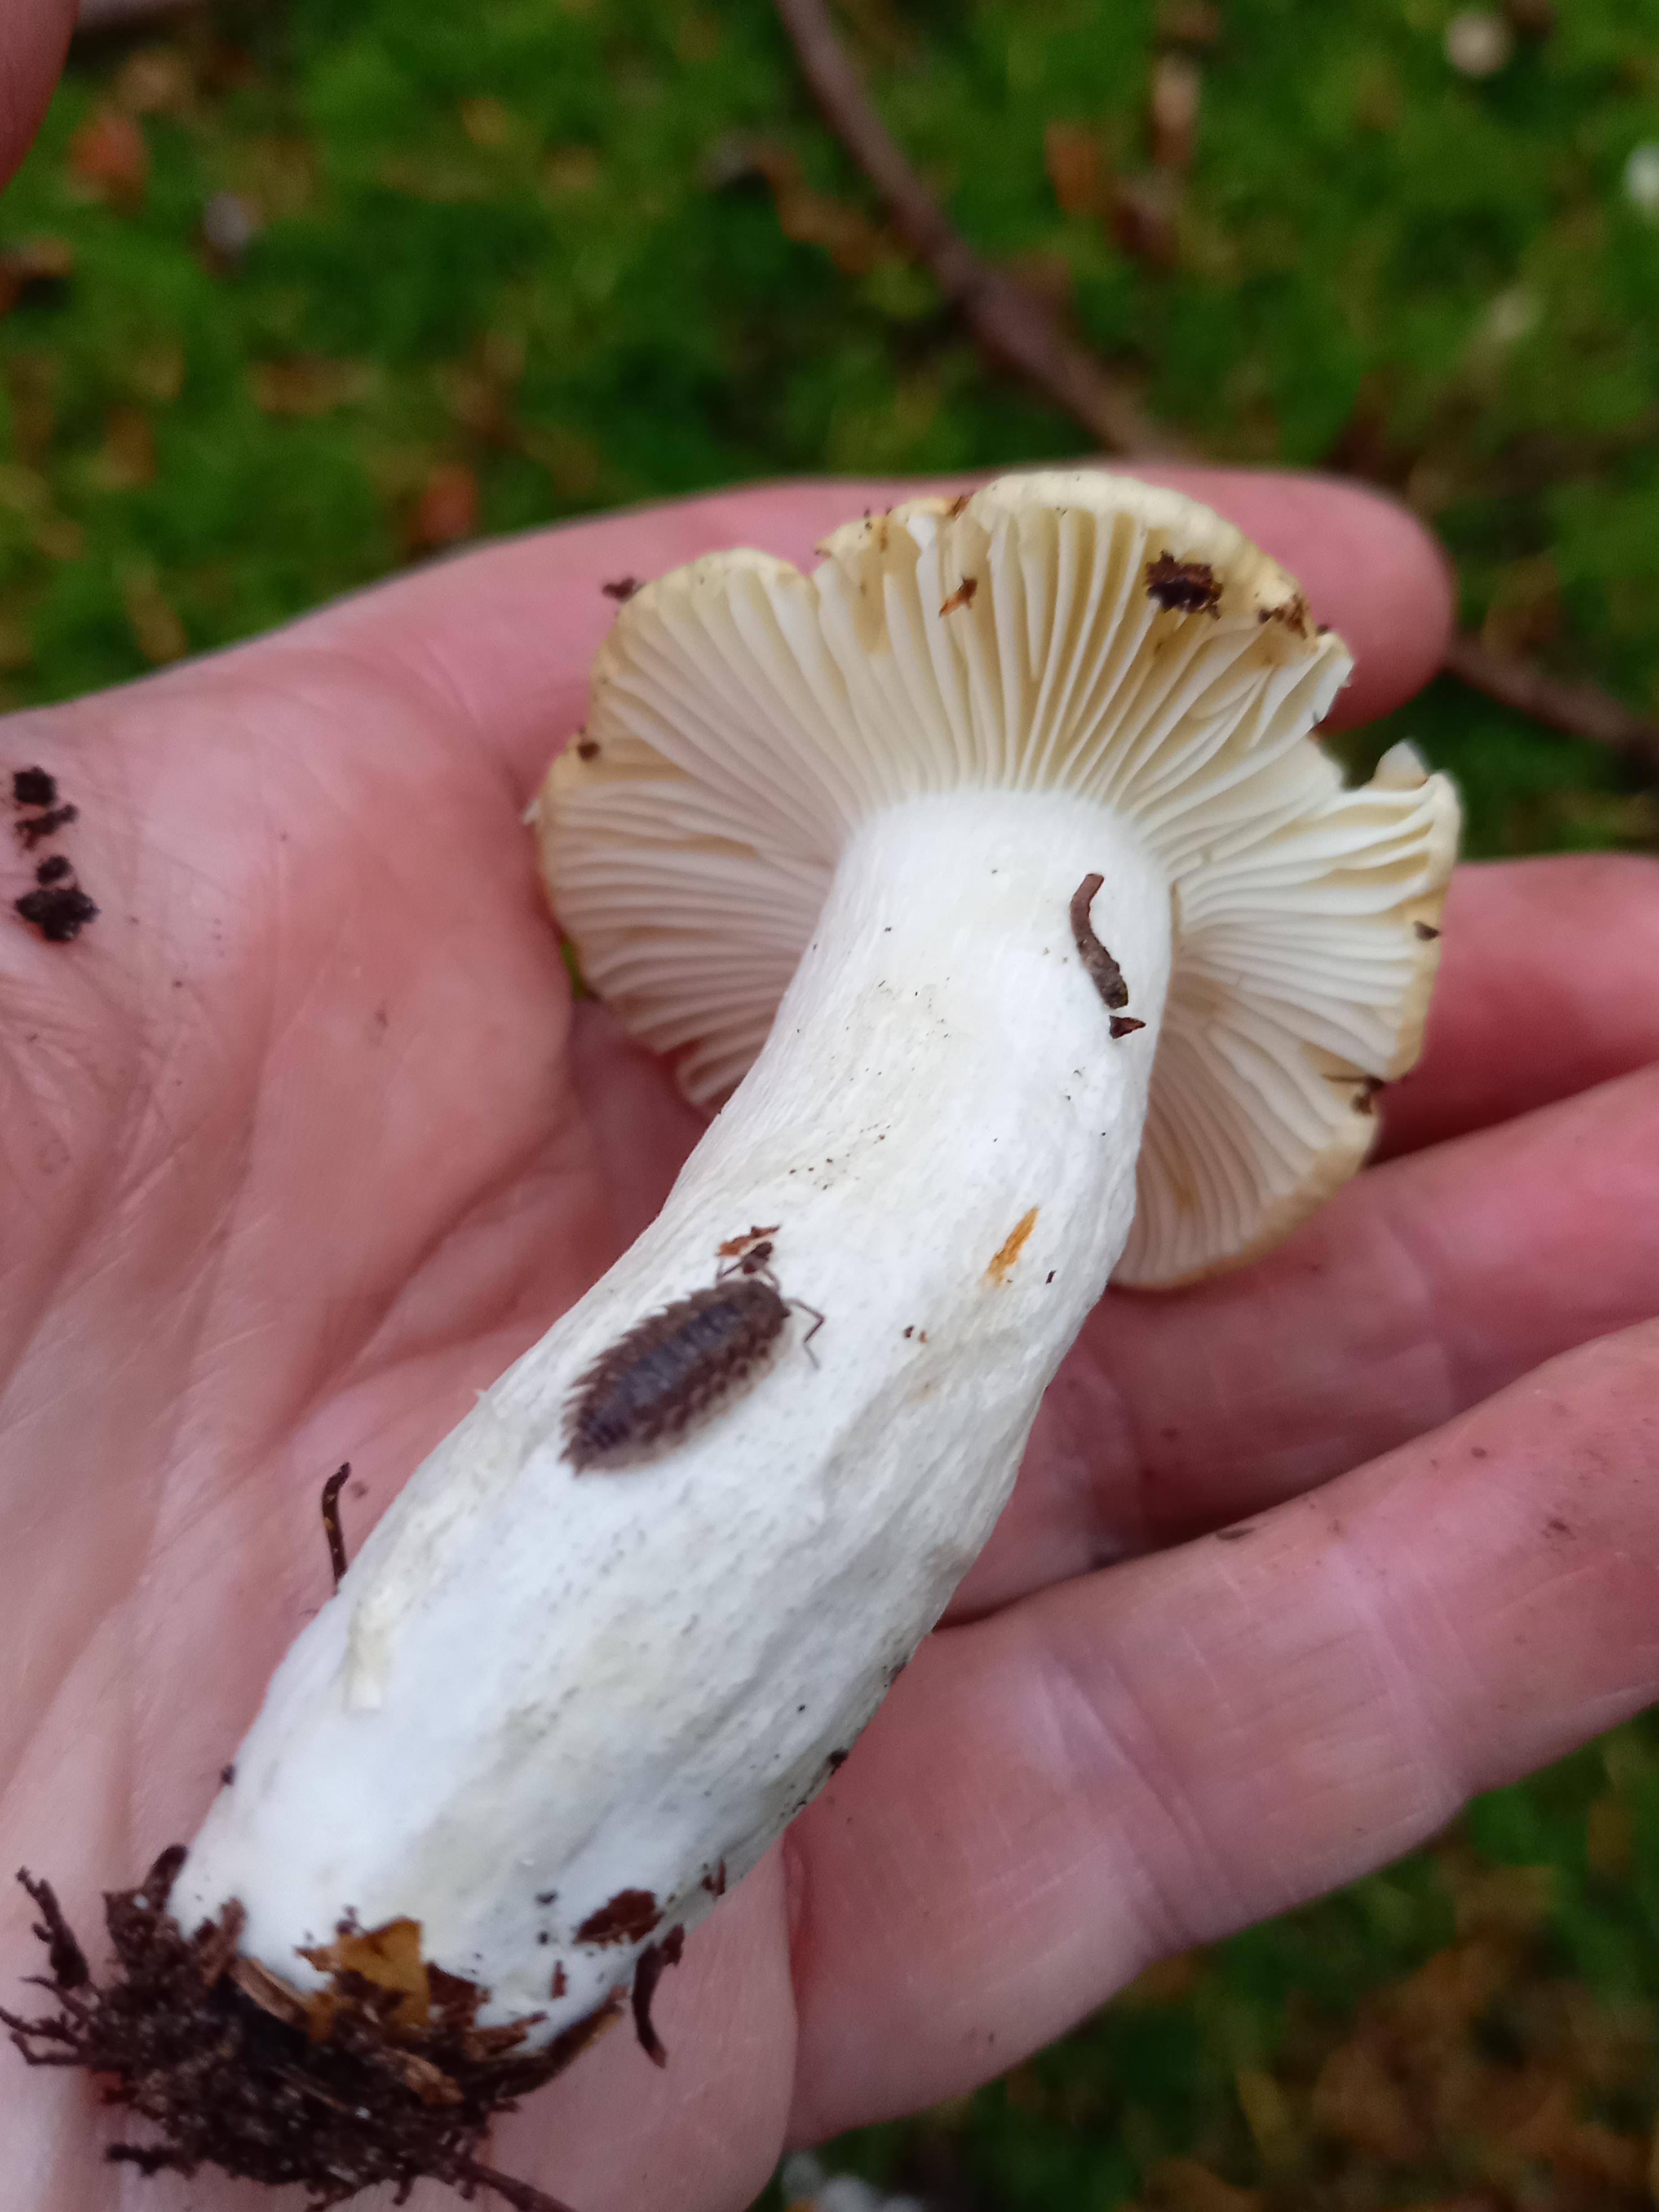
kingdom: Fungi
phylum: Basidiomycota
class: Agaricomycetes
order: Russulales
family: Russulaceae
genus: Russula
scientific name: Russula ochroleuca
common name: okkergul skørhat
